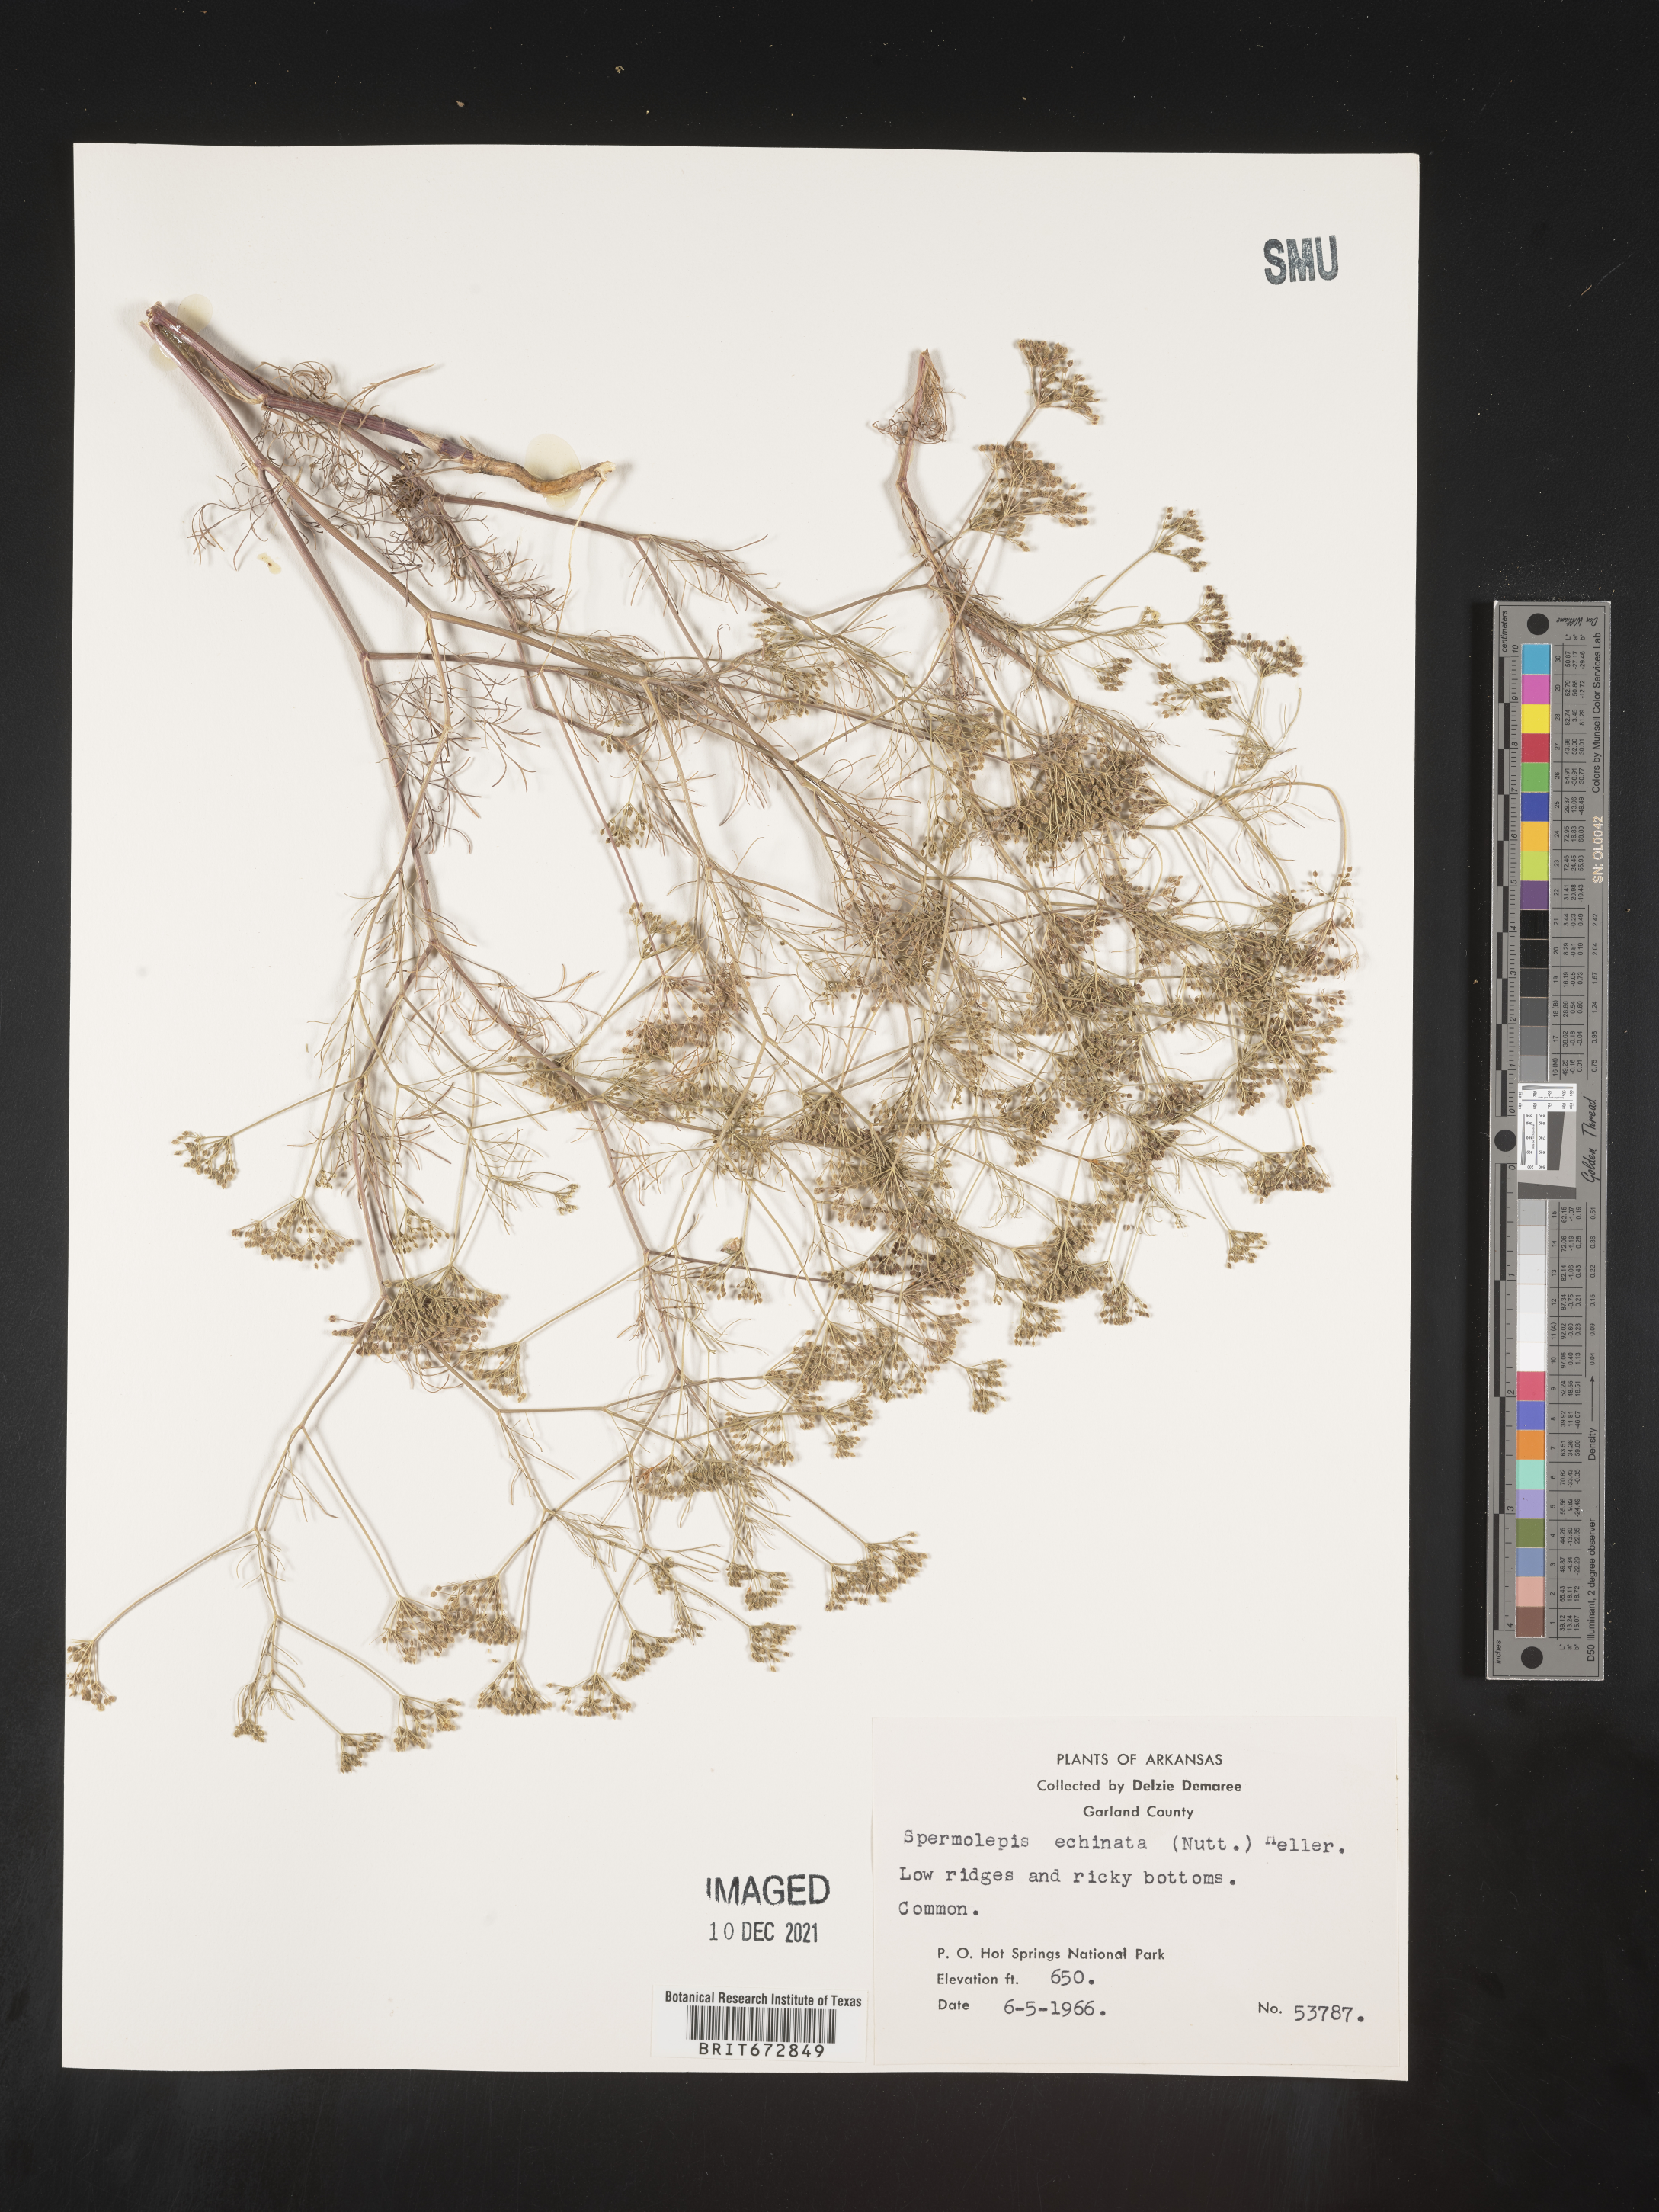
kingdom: Plantae
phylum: Tracheophyta
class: Magnoliopsida
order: Apiales
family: Apiaceae
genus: Spermolepis
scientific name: Spermolepis echinata
